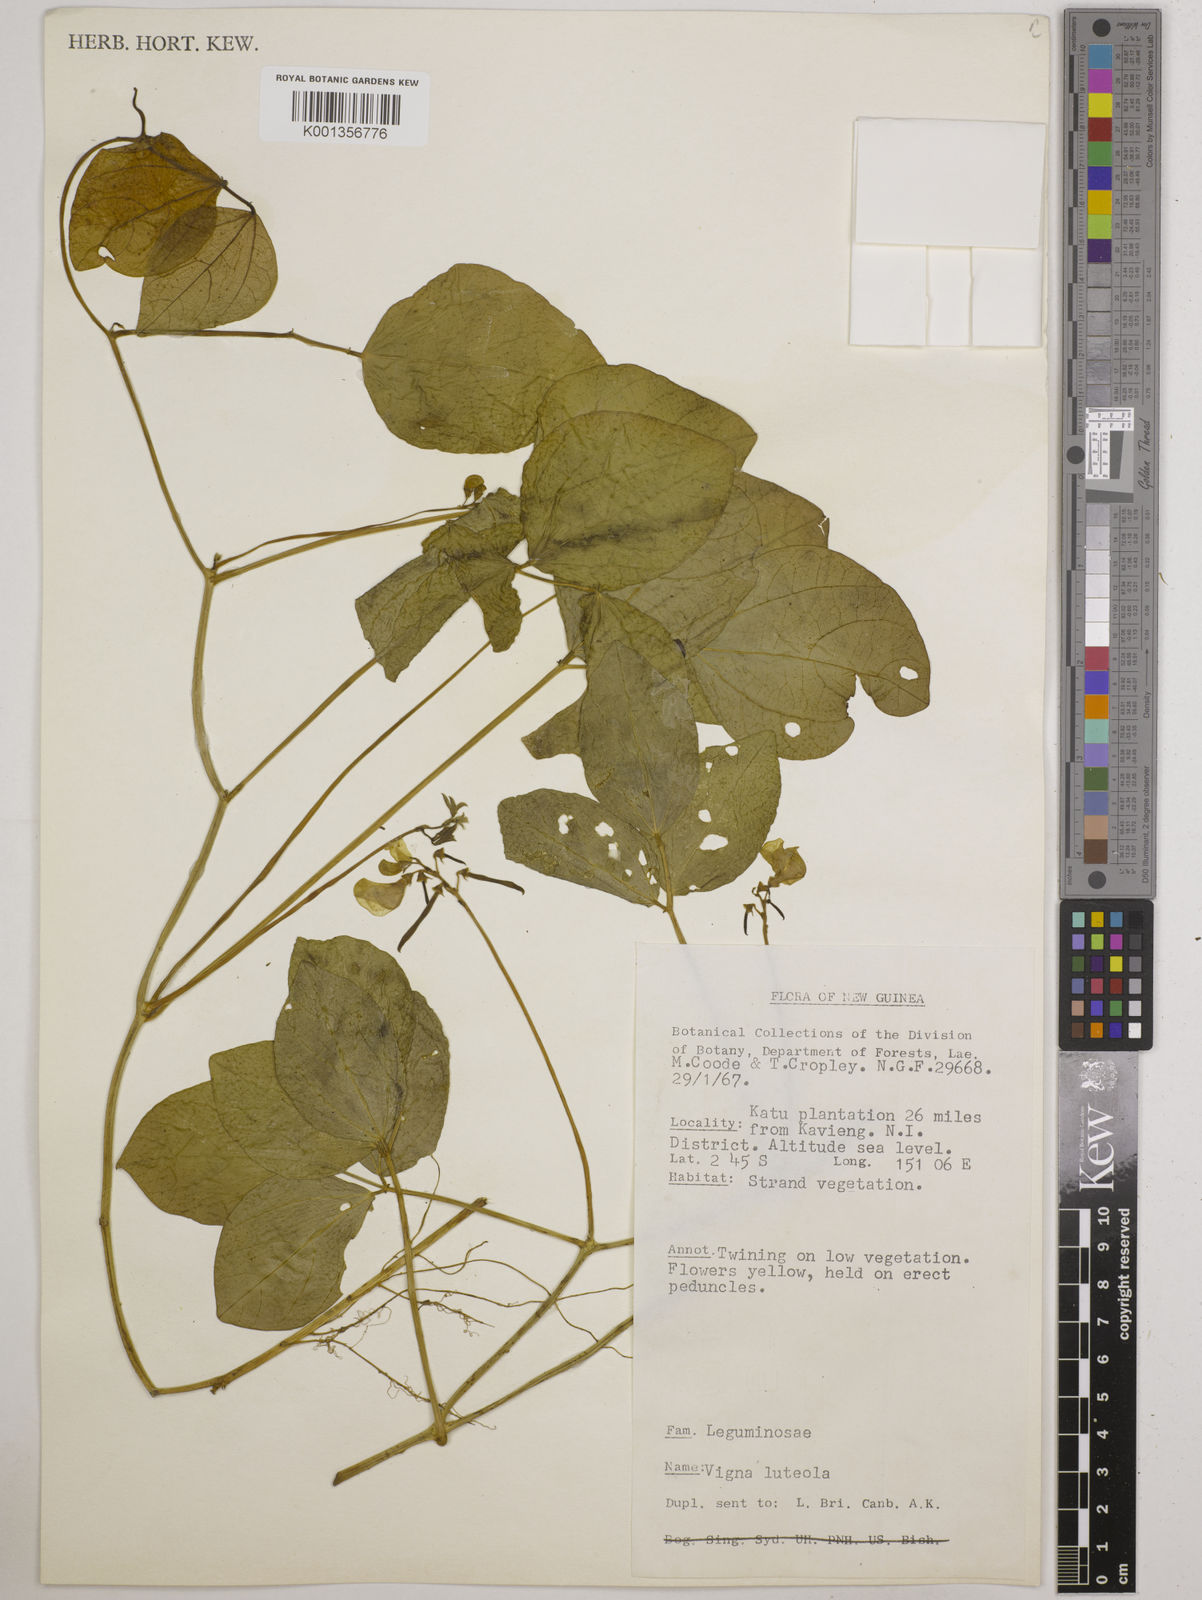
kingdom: Plantae
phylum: Tracheophyta
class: Magnoliopsida
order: Fabales
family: Fabaceae
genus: Vigna
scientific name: Vigna marina
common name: Dune-bean
